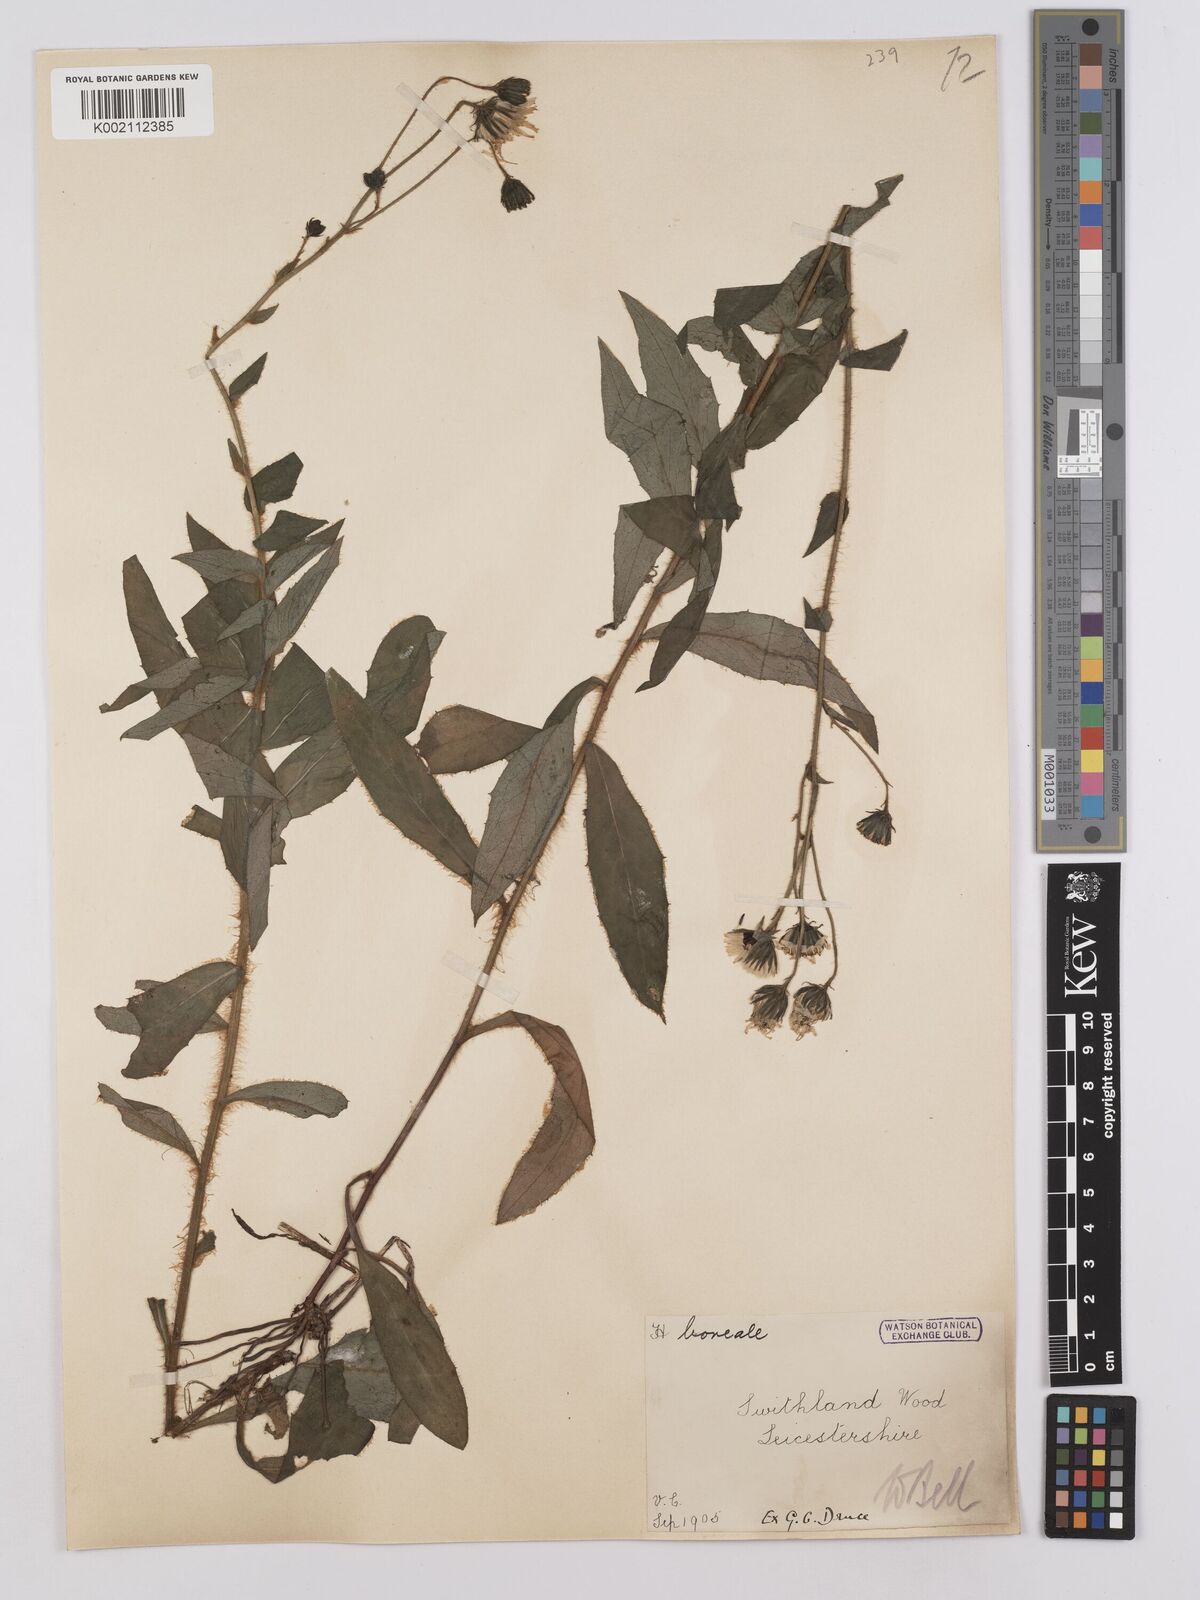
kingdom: Plantae
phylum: Tracheophyta
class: Magnoliopsida
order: Asterales
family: Asteraceae
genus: Hieracium
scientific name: Hieracium sabaudum
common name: New england hawkweed
